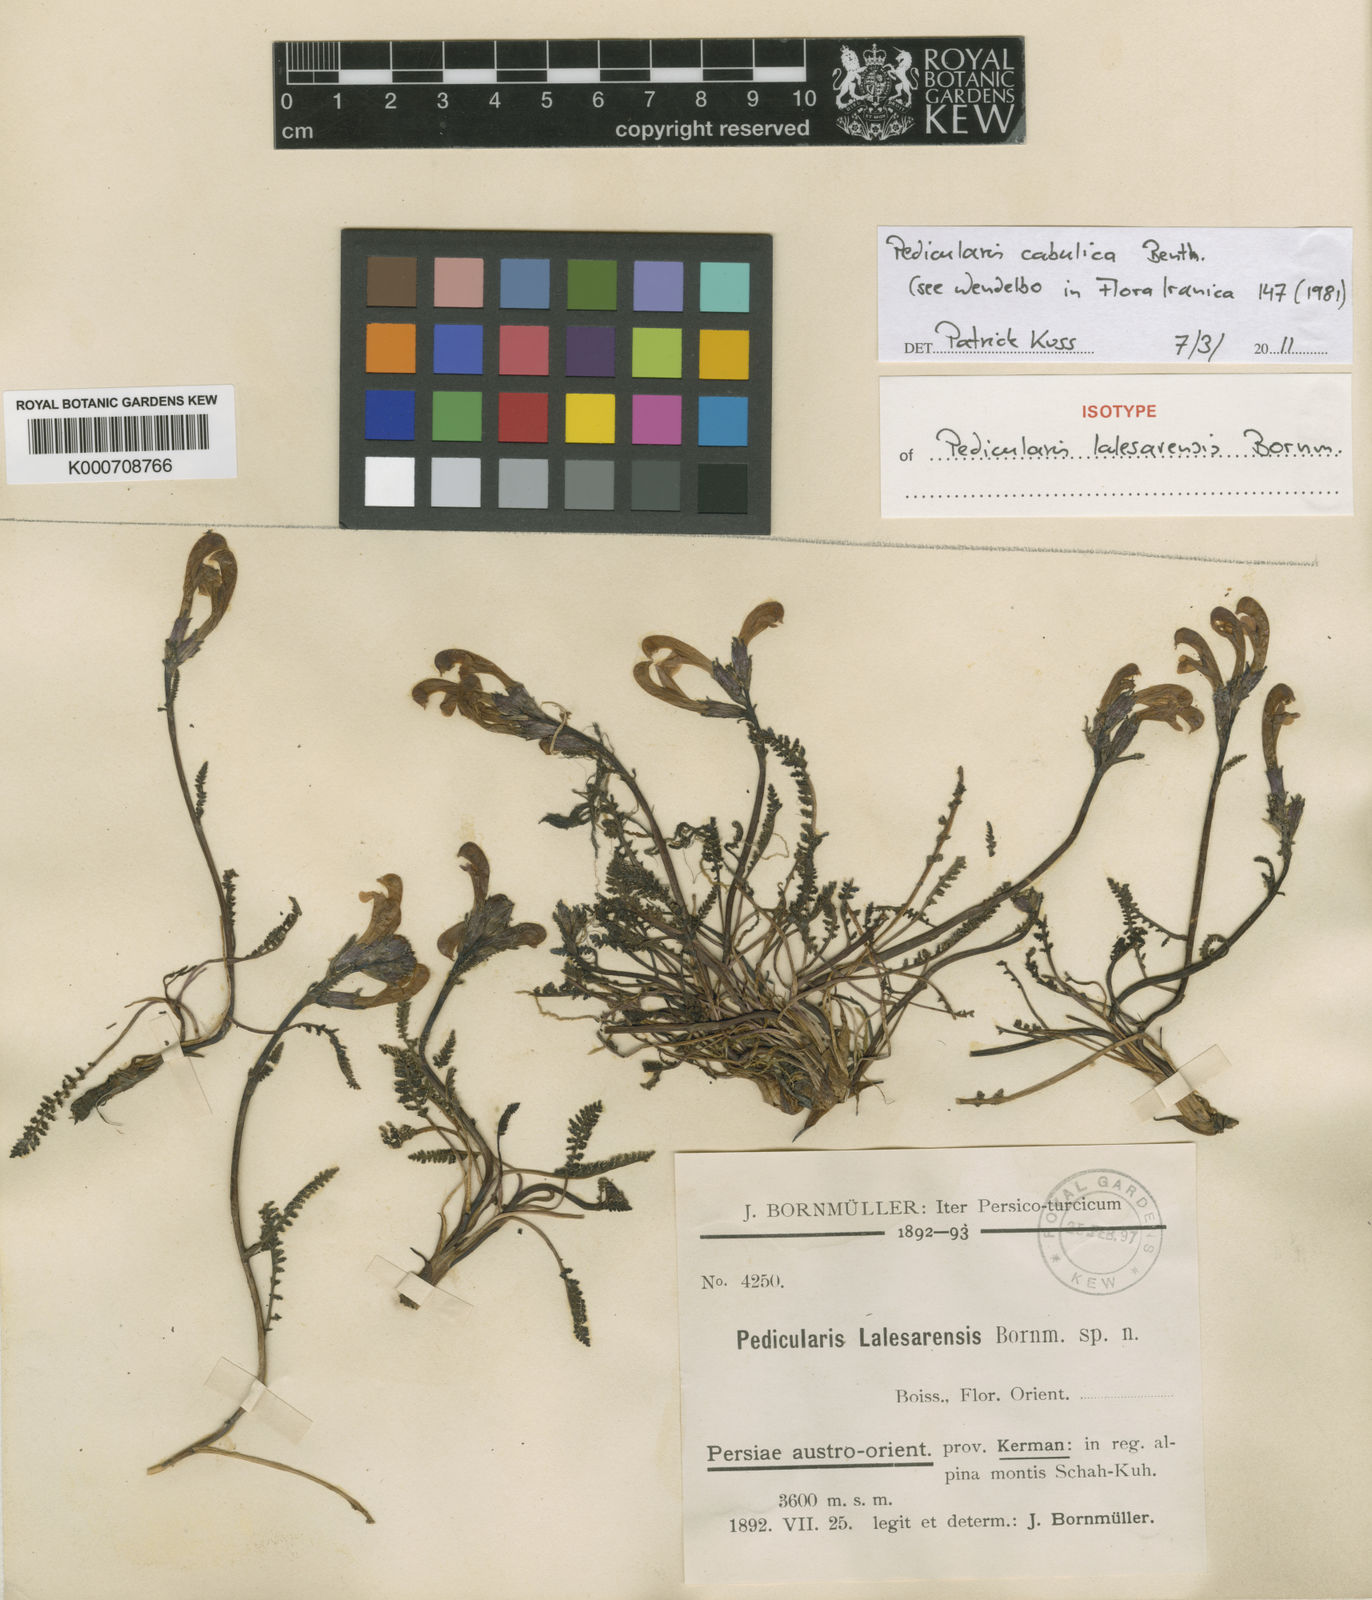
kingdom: Plantae
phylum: Tracheophyta
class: Magnoliopsida
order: Lamiales
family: Orobanchaceae
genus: Pedicularis
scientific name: Pedicularis cabulica
